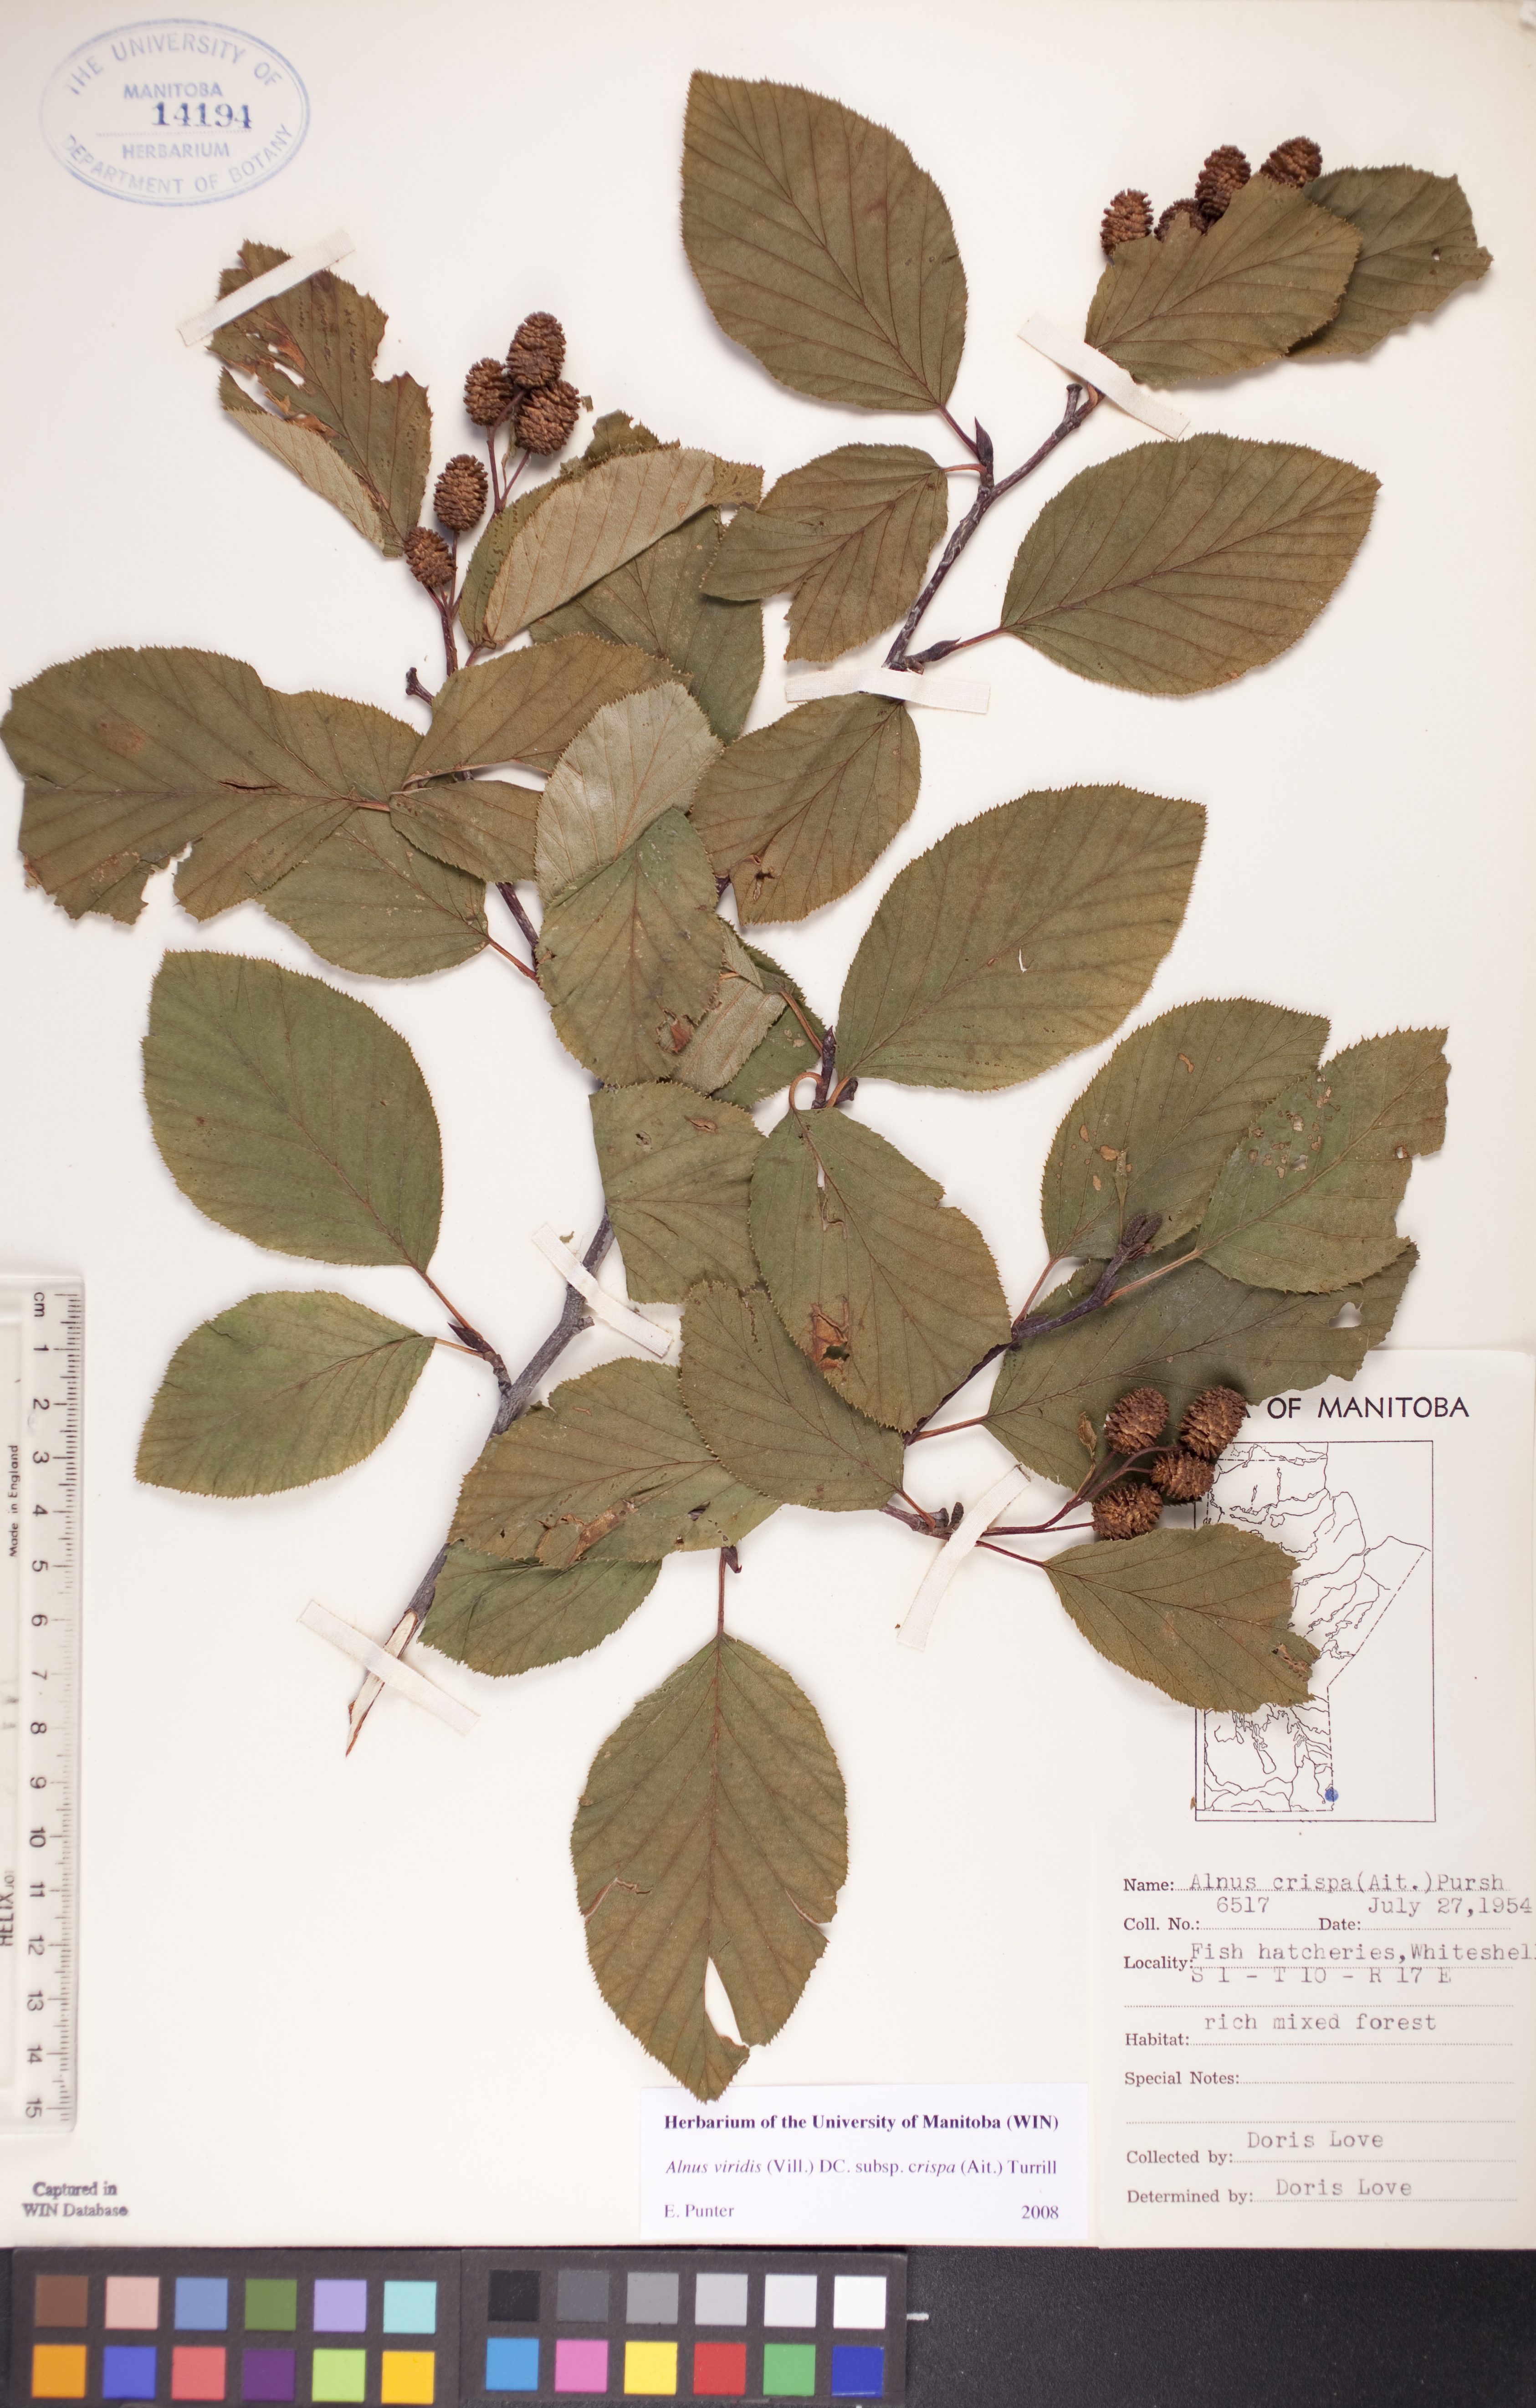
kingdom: Plantae
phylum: Tracheophyta
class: Magnoliopsida
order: Fagales
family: Betulaceae
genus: Alnus
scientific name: Alnus alnobetula
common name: Green alder
